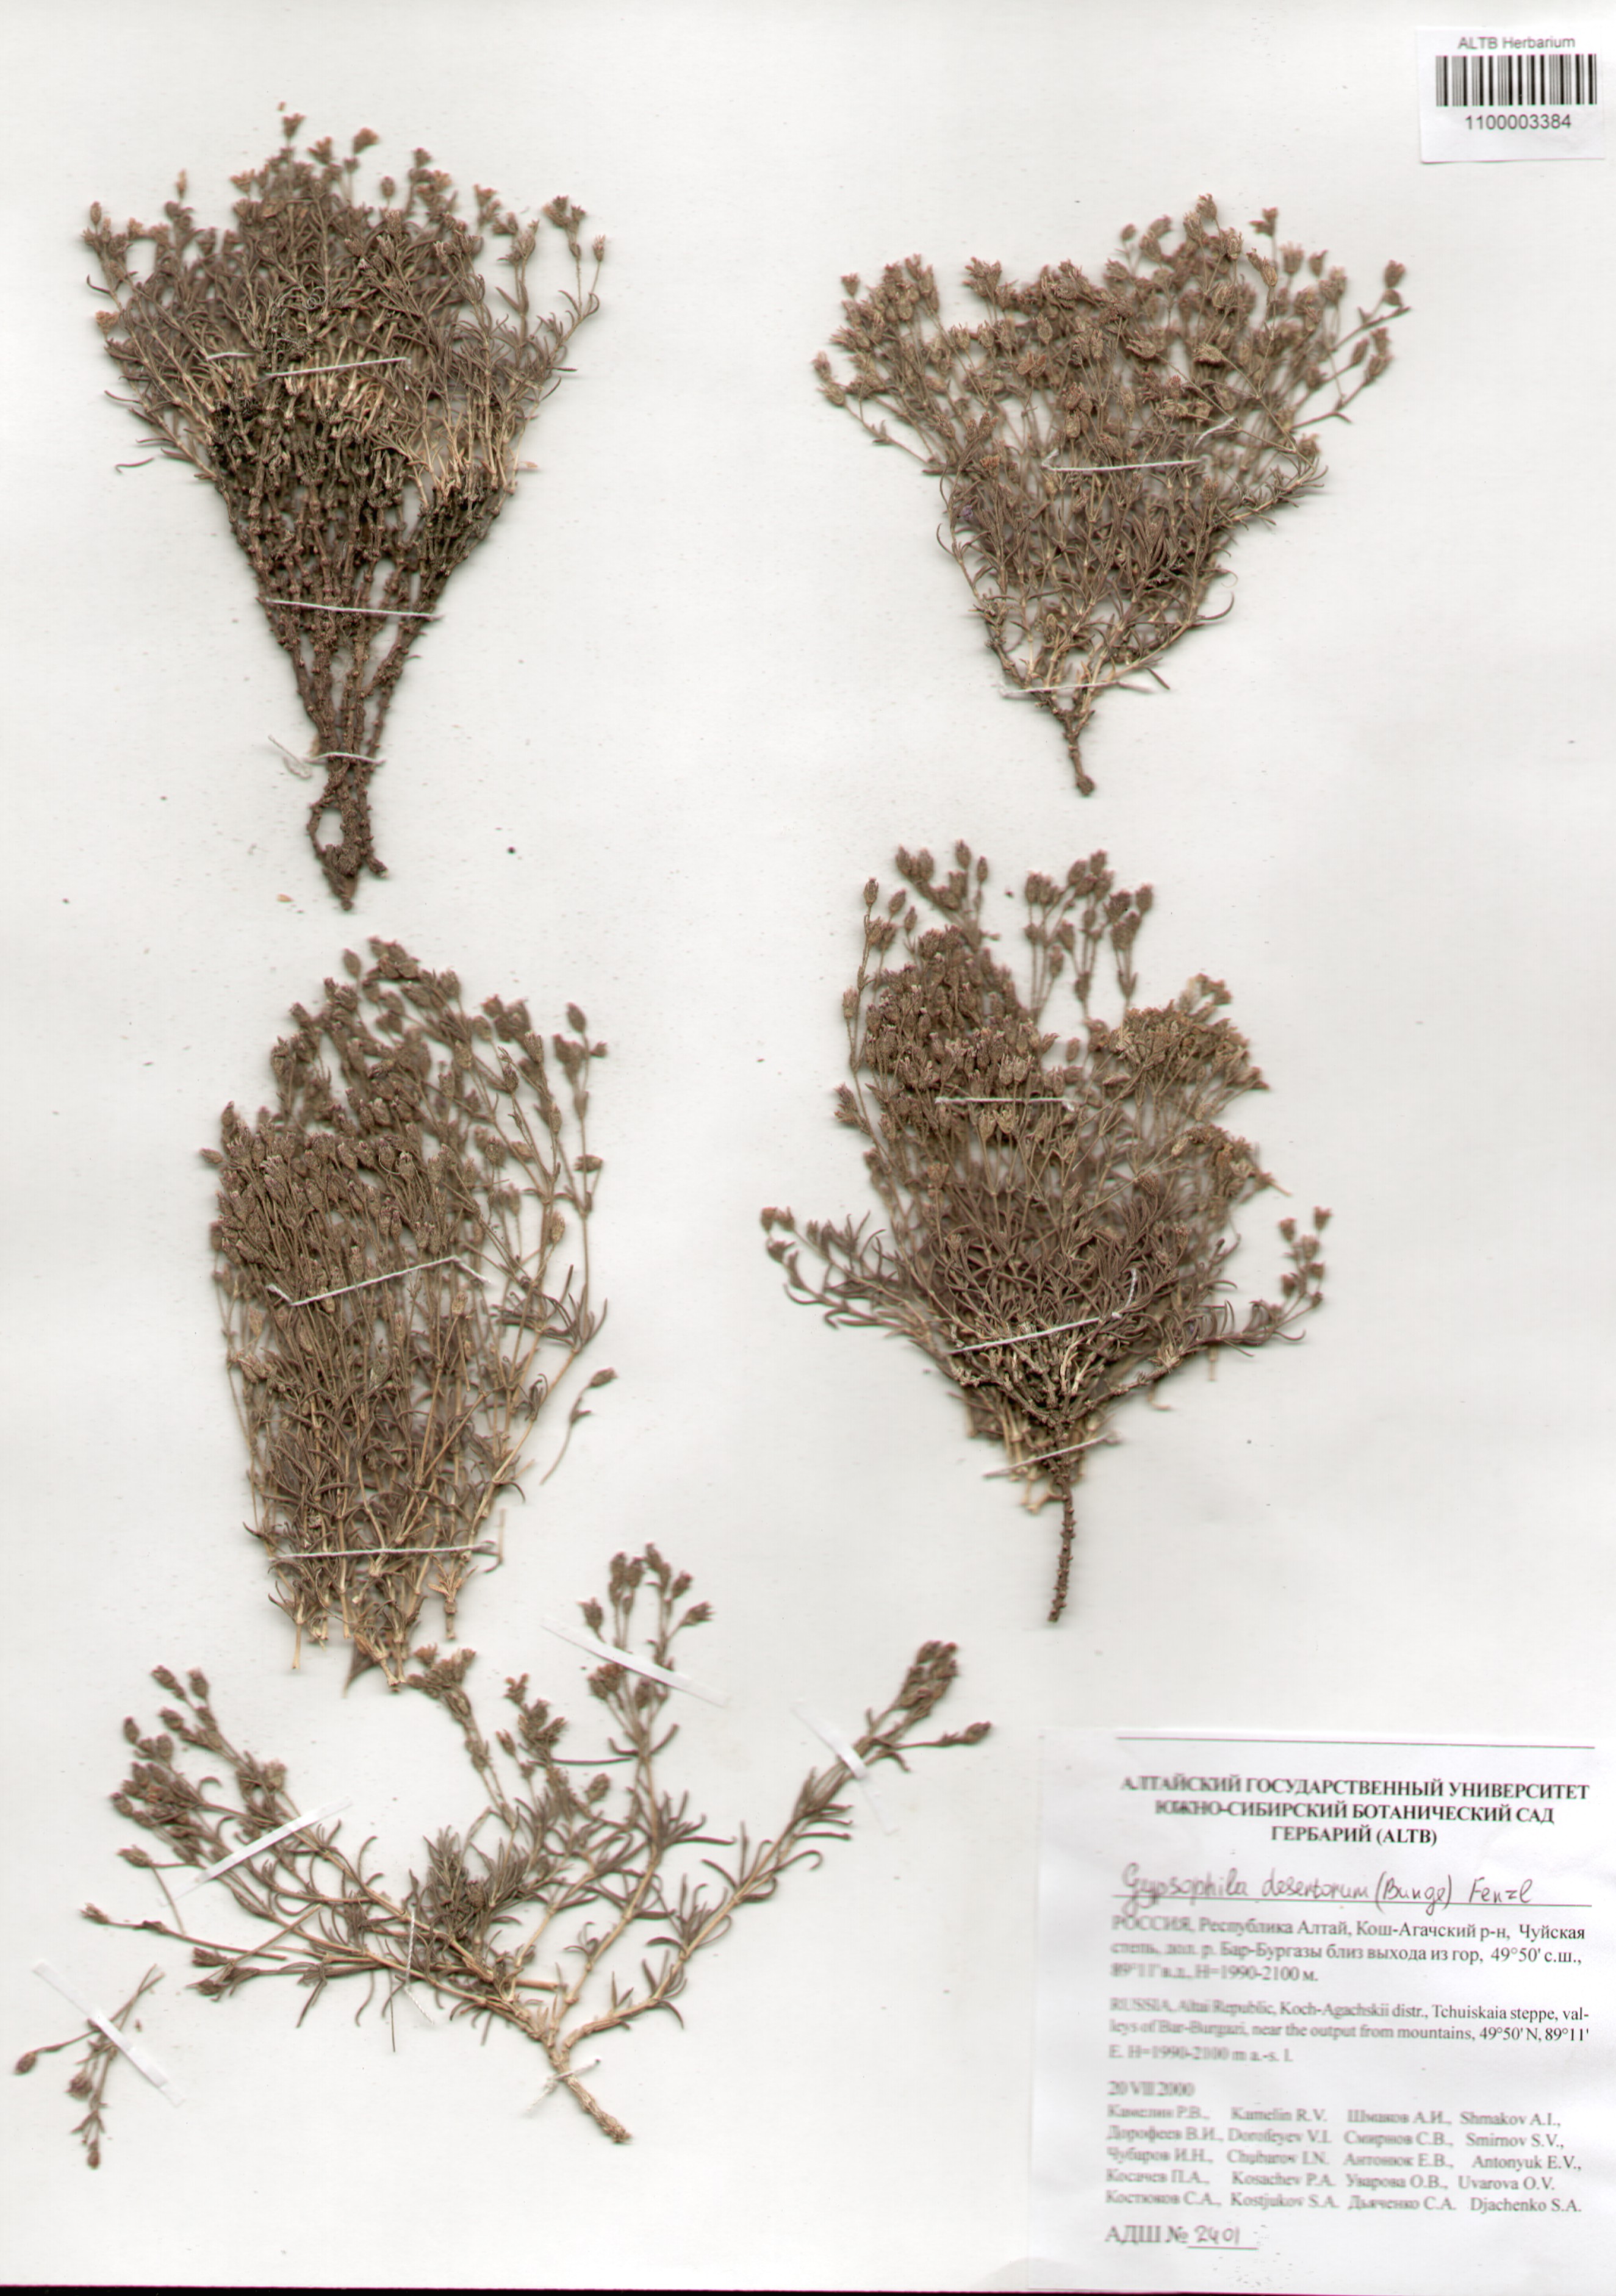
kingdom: Plantae
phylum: Tracheophyta
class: Magnoliopsida
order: Caryophyllales
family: Caryophyllaceae
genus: Heterochroa
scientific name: Heterochroa desertorum
